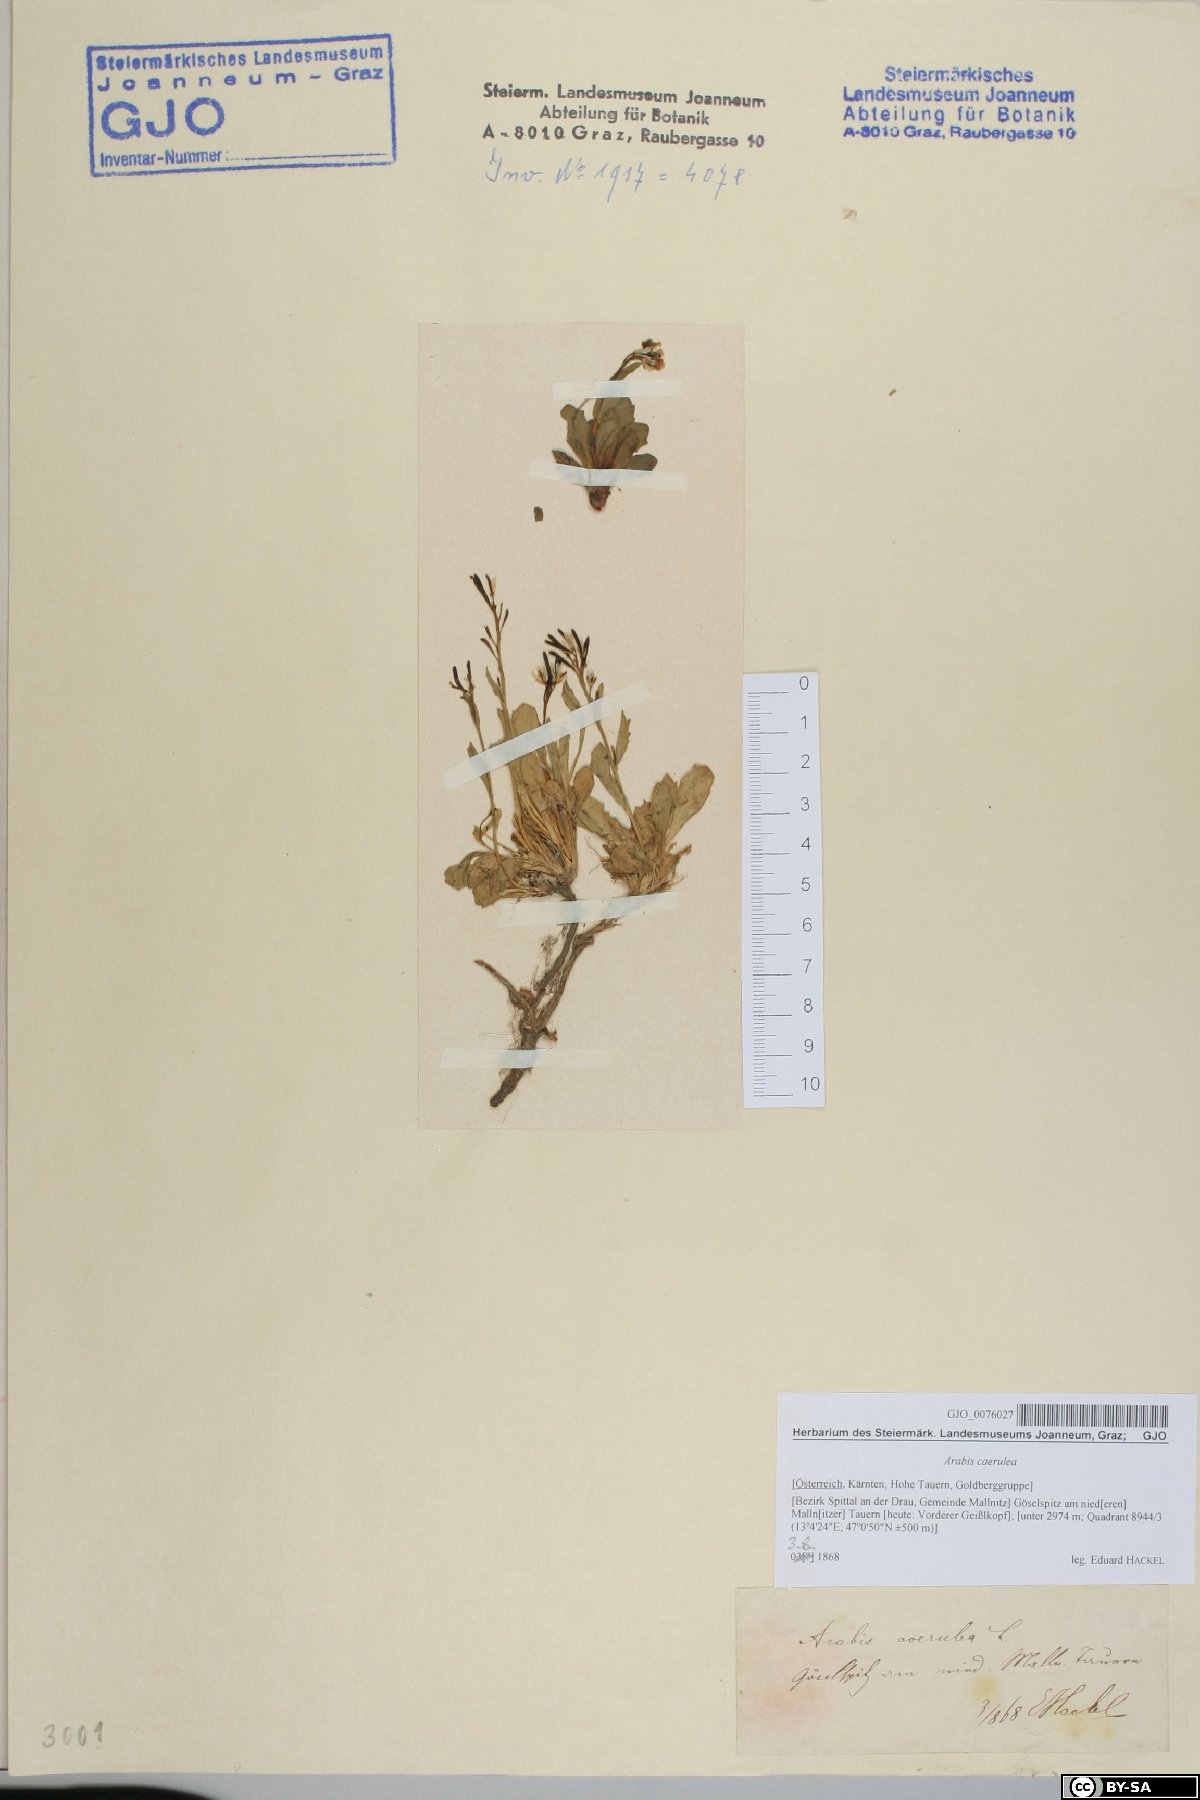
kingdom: Plantae
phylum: Tracheophyta
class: Magnoliopsida
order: Brassicales
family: Brassicaceae
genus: Arabis
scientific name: Arabis caerulea
